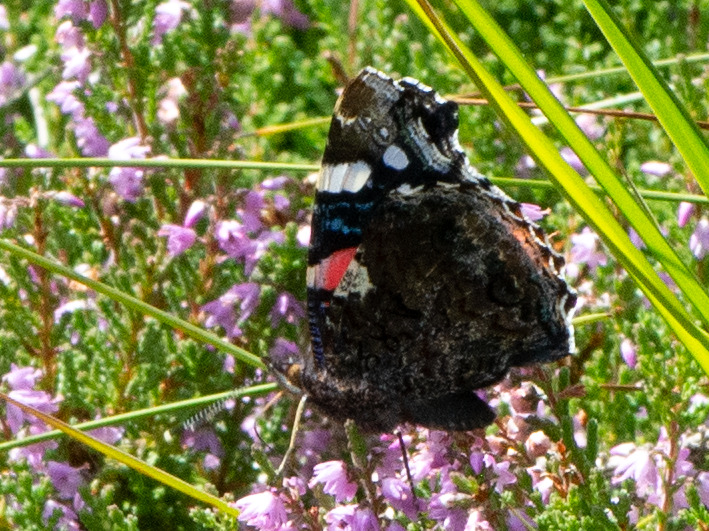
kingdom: Animalia
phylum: Arthropoda
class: Insecta
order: Lepidoptera
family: Nymphalidae
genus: Vanessa
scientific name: Vanessa atalanta
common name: Admiral
